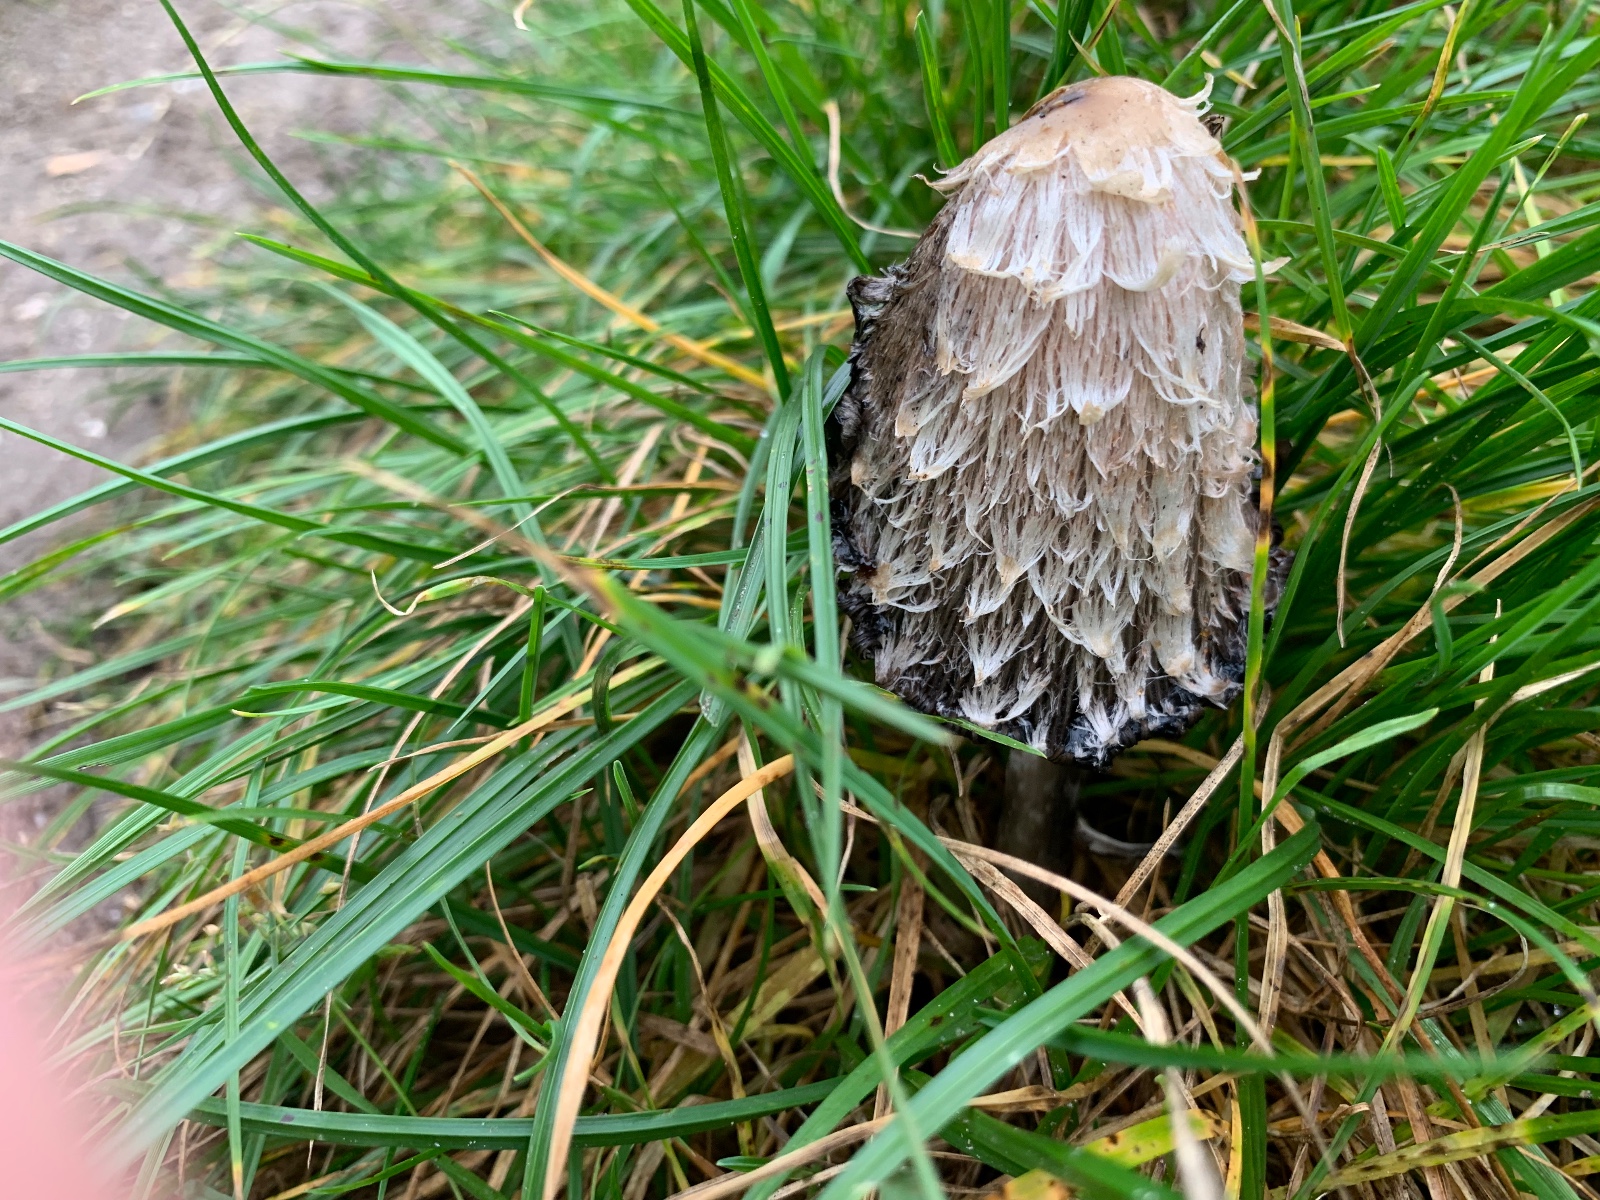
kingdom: Fungi
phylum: Basidiomycota
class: Agaricomycetes
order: Agaricales
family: Agaricaceae
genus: Coprinus
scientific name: Coprinus comatus
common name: stor parykhat
